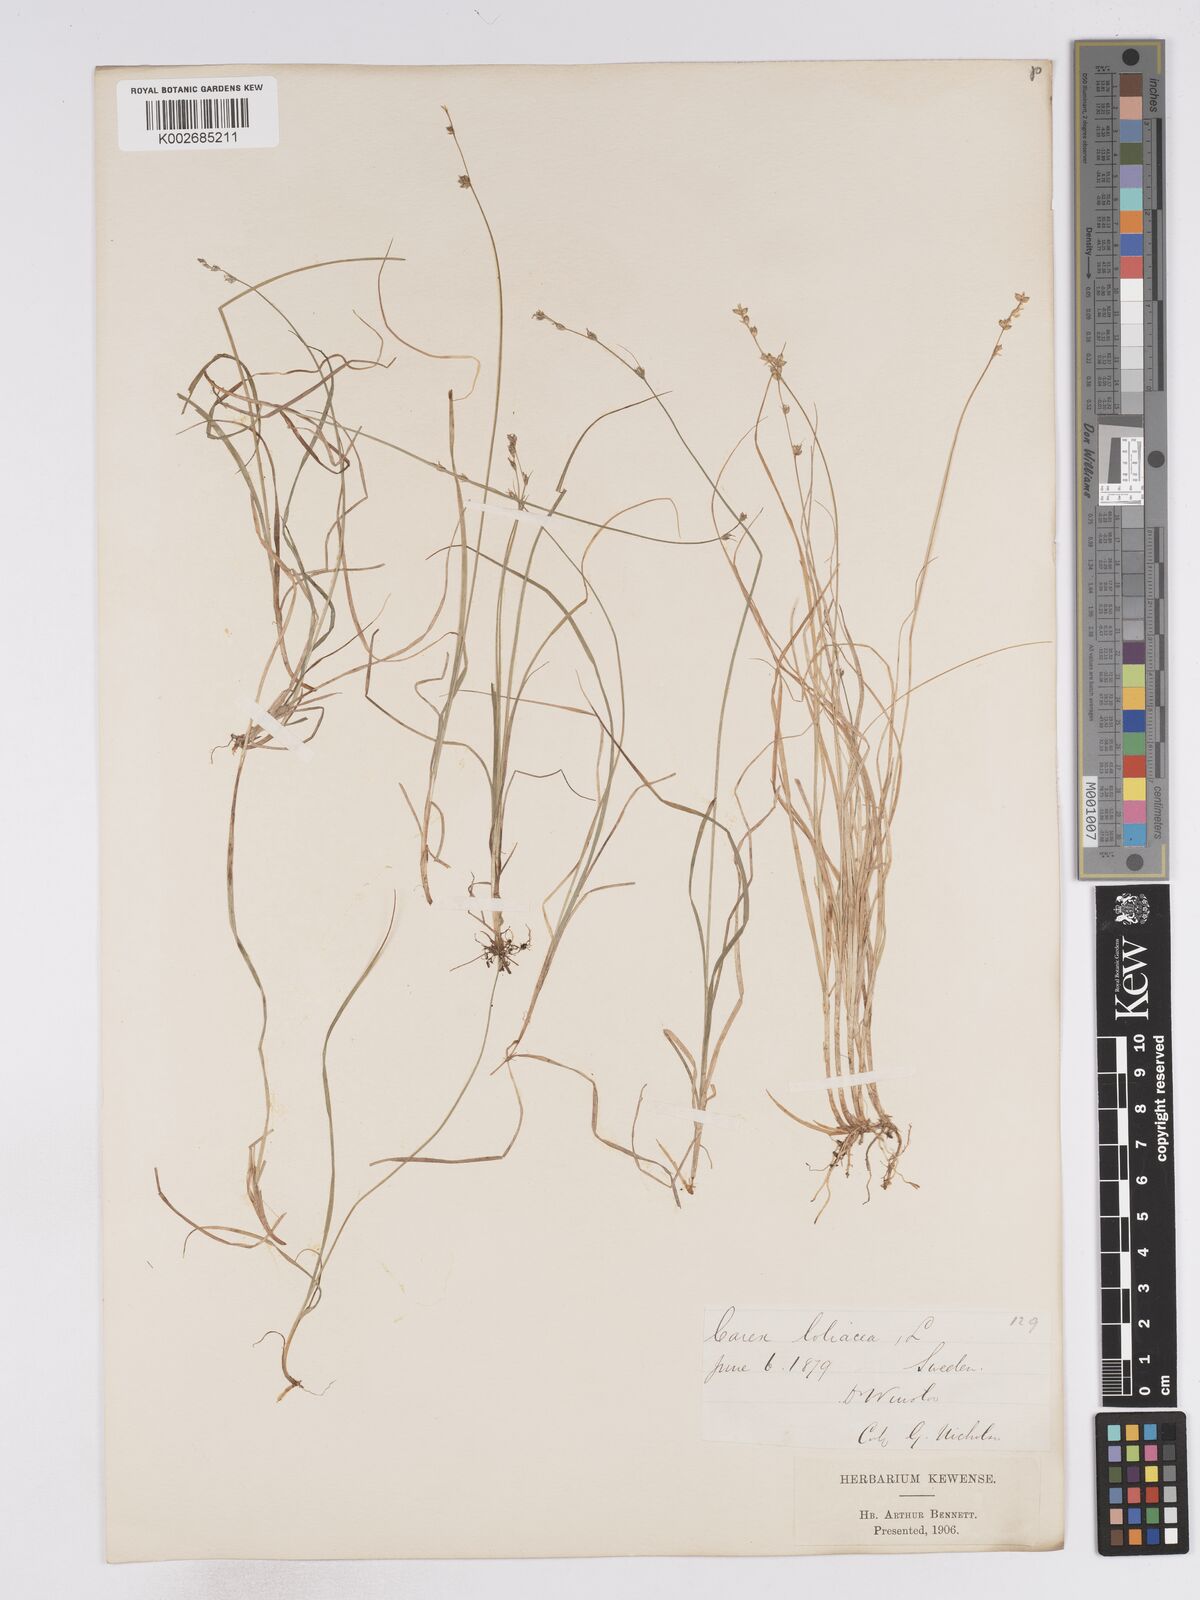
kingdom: Plantae
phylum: Tracheophyta
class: Liliopsida
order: Poales
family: Cyperaceae
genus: Carex
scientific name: Carex loliacea
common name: Ryegrass sedge
